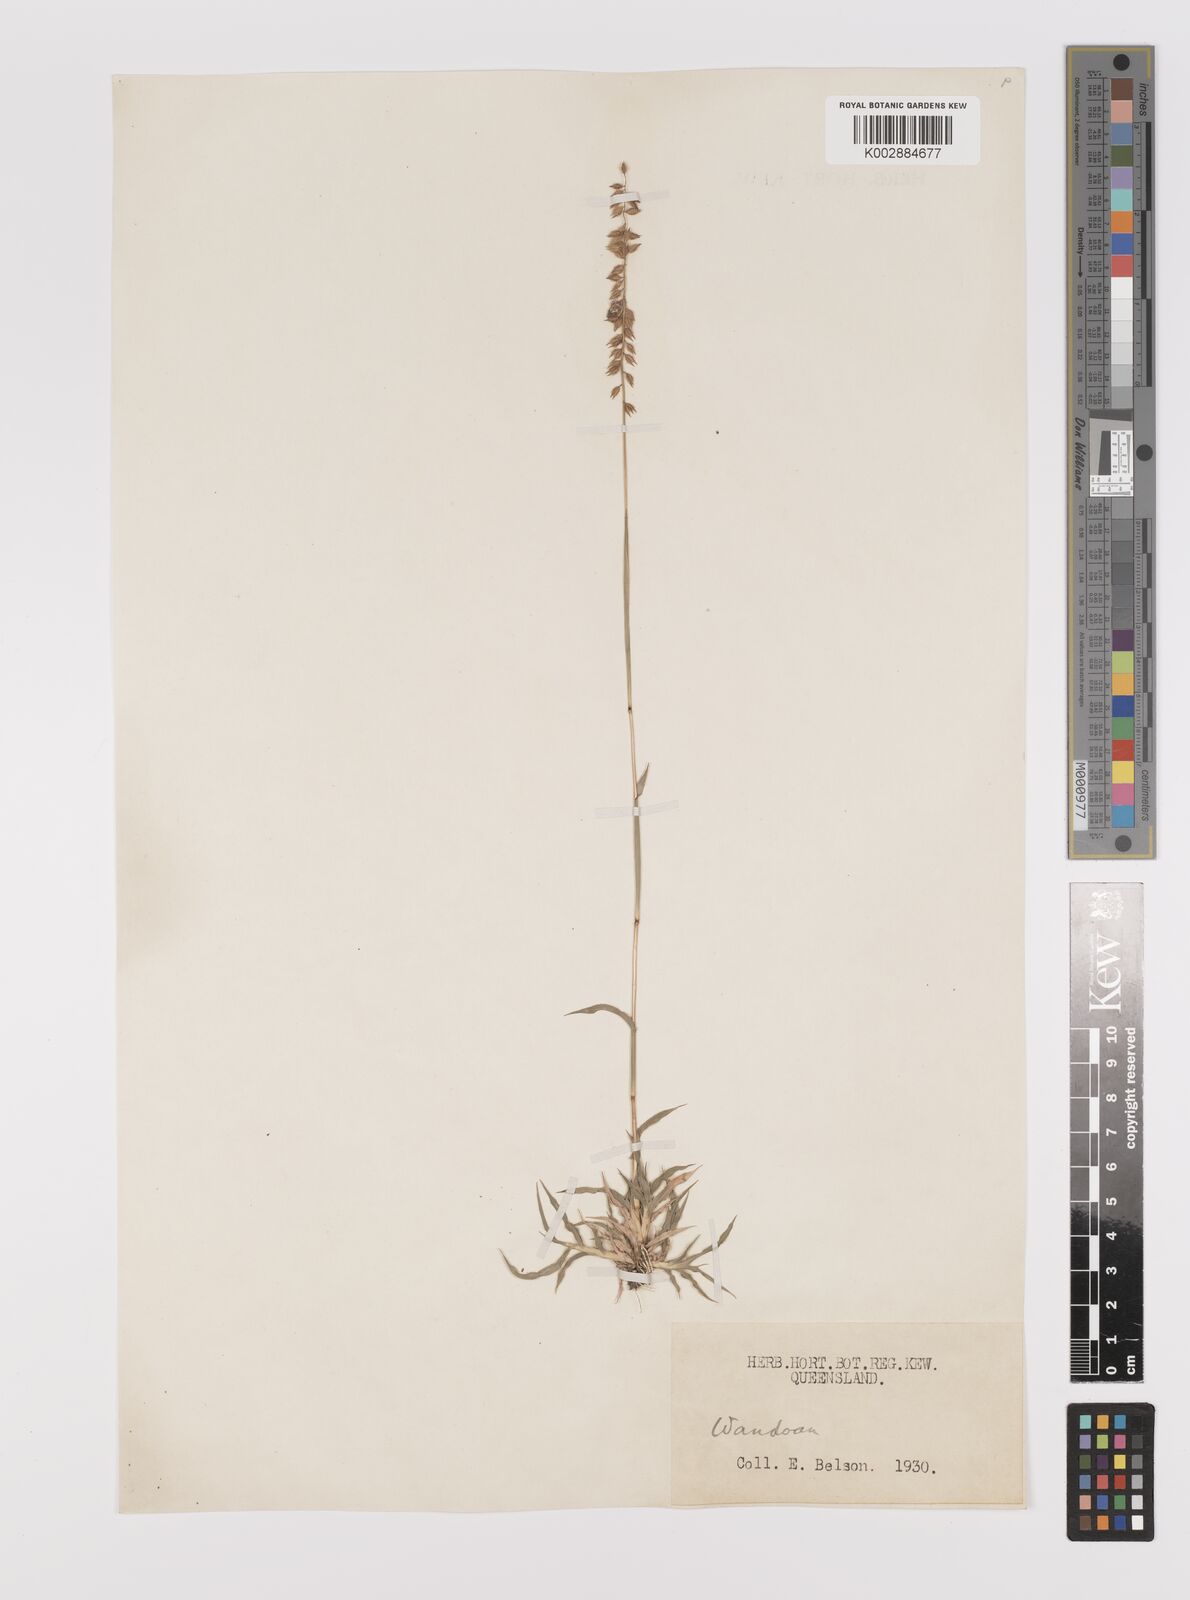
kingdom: Plantae
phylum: Tracheophyta
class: Liliopsida
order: Poales
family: Poaceae
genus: Tragus
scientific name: Tragus australianus
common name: Australian bur-grass
